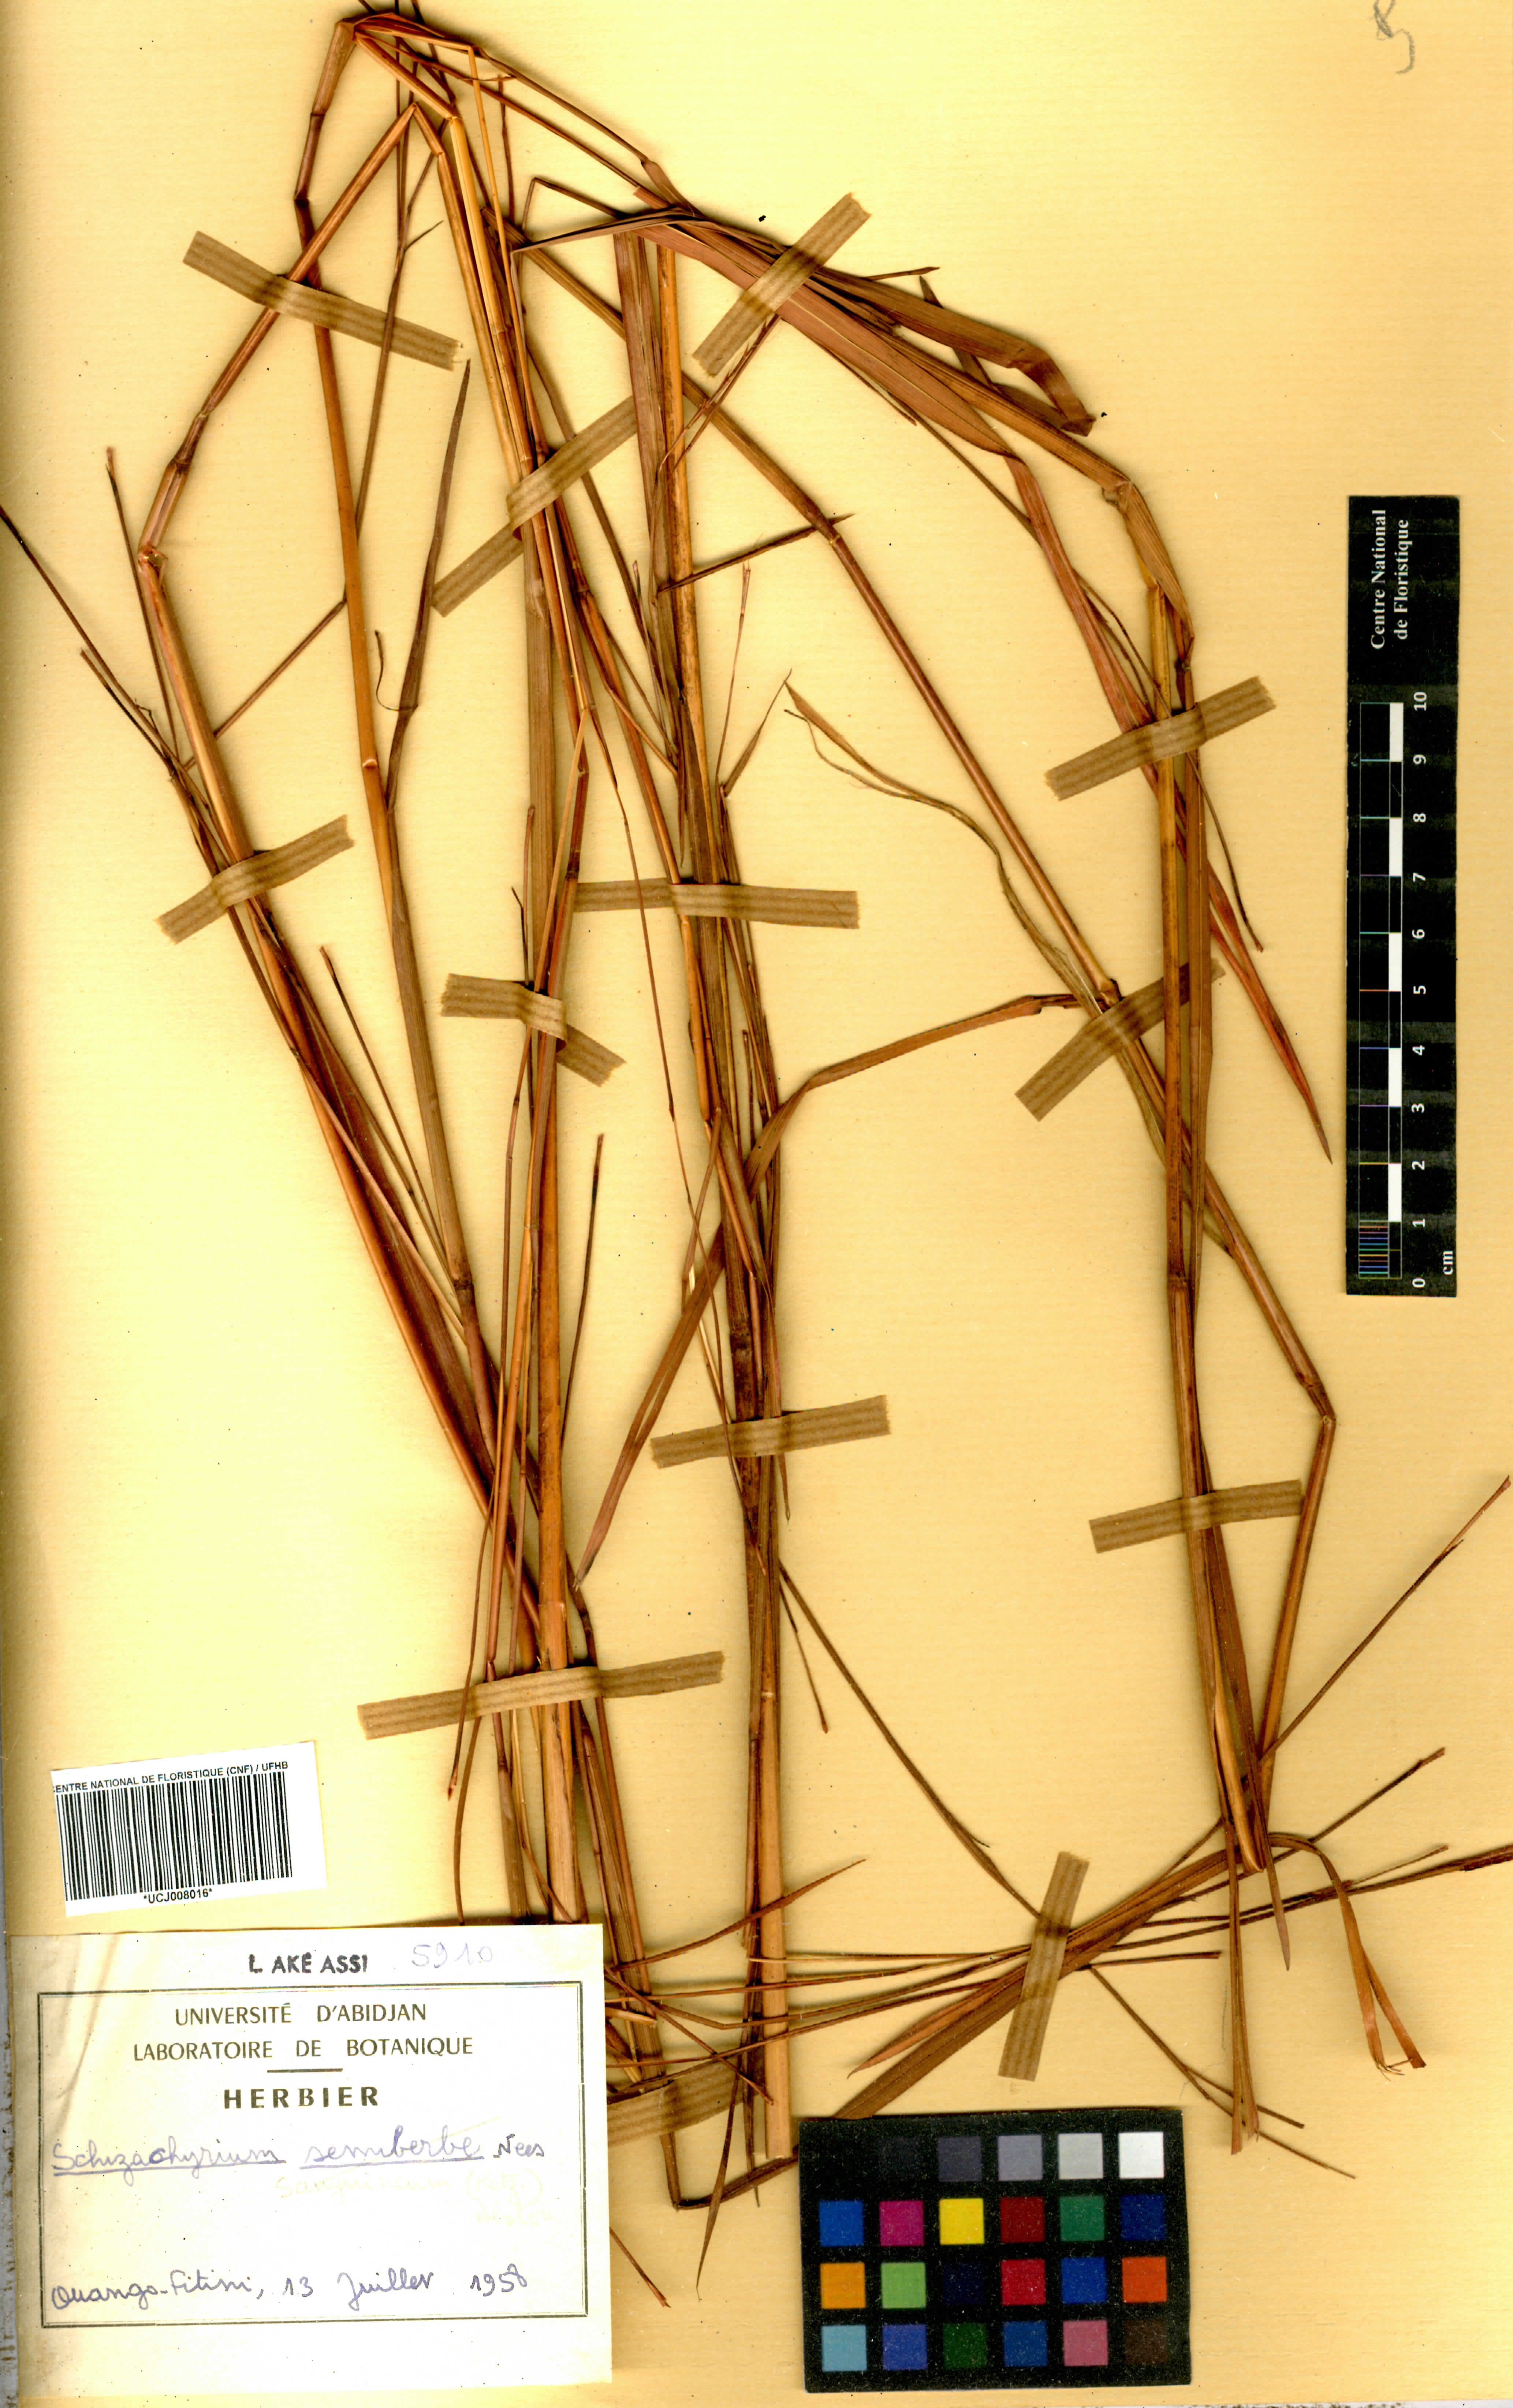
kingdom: Plantae
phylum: Tracheophyta
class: Liliopsida
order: Poales
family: Poaceae
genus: Schizachyrium
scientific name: Schizachyrium sanguineum
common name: Crimson bluestem
